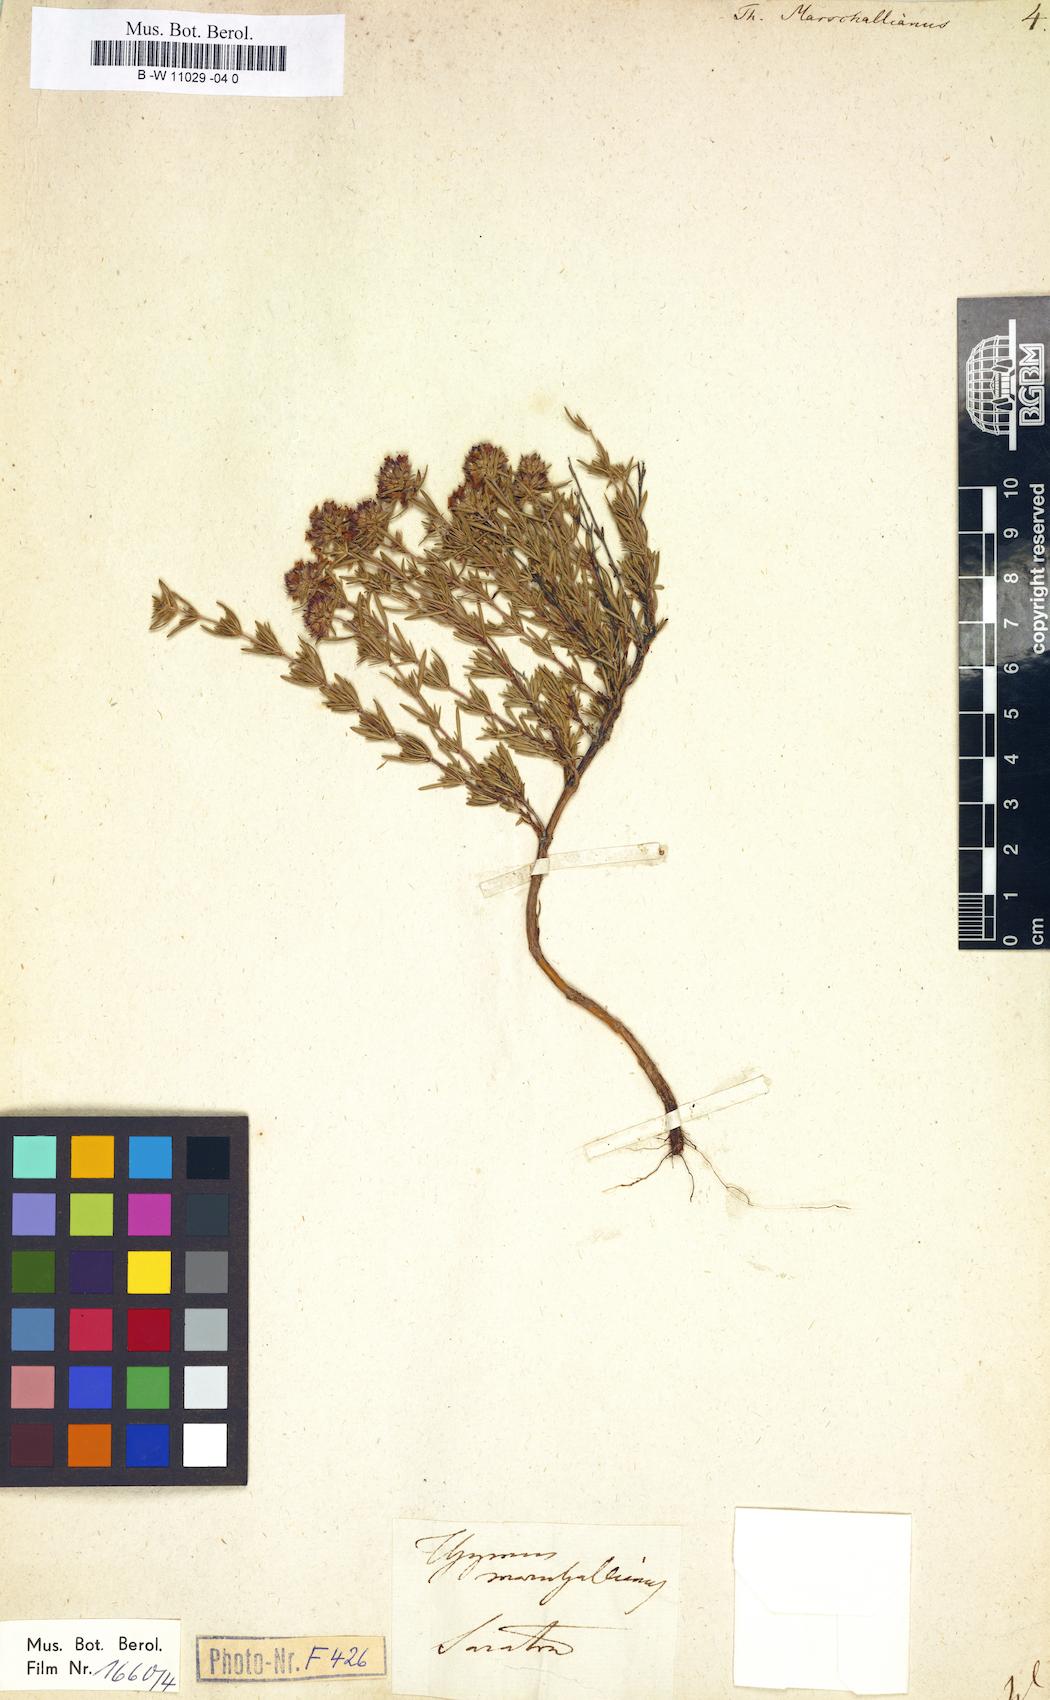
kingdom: Plantae
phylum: Tracheophyta
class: Magnoliopsida
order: Lamiales
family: Lamiaceae
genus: Thymus
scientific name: Thymus marschallianus
